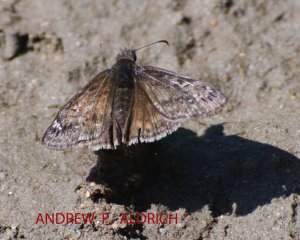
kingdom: Animalia
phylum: Arthropoda
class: Insecta
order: Lepidoptera
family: Hesperiidae
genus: Gesta
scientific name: Gesta
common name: Juvenal's Duskywing
